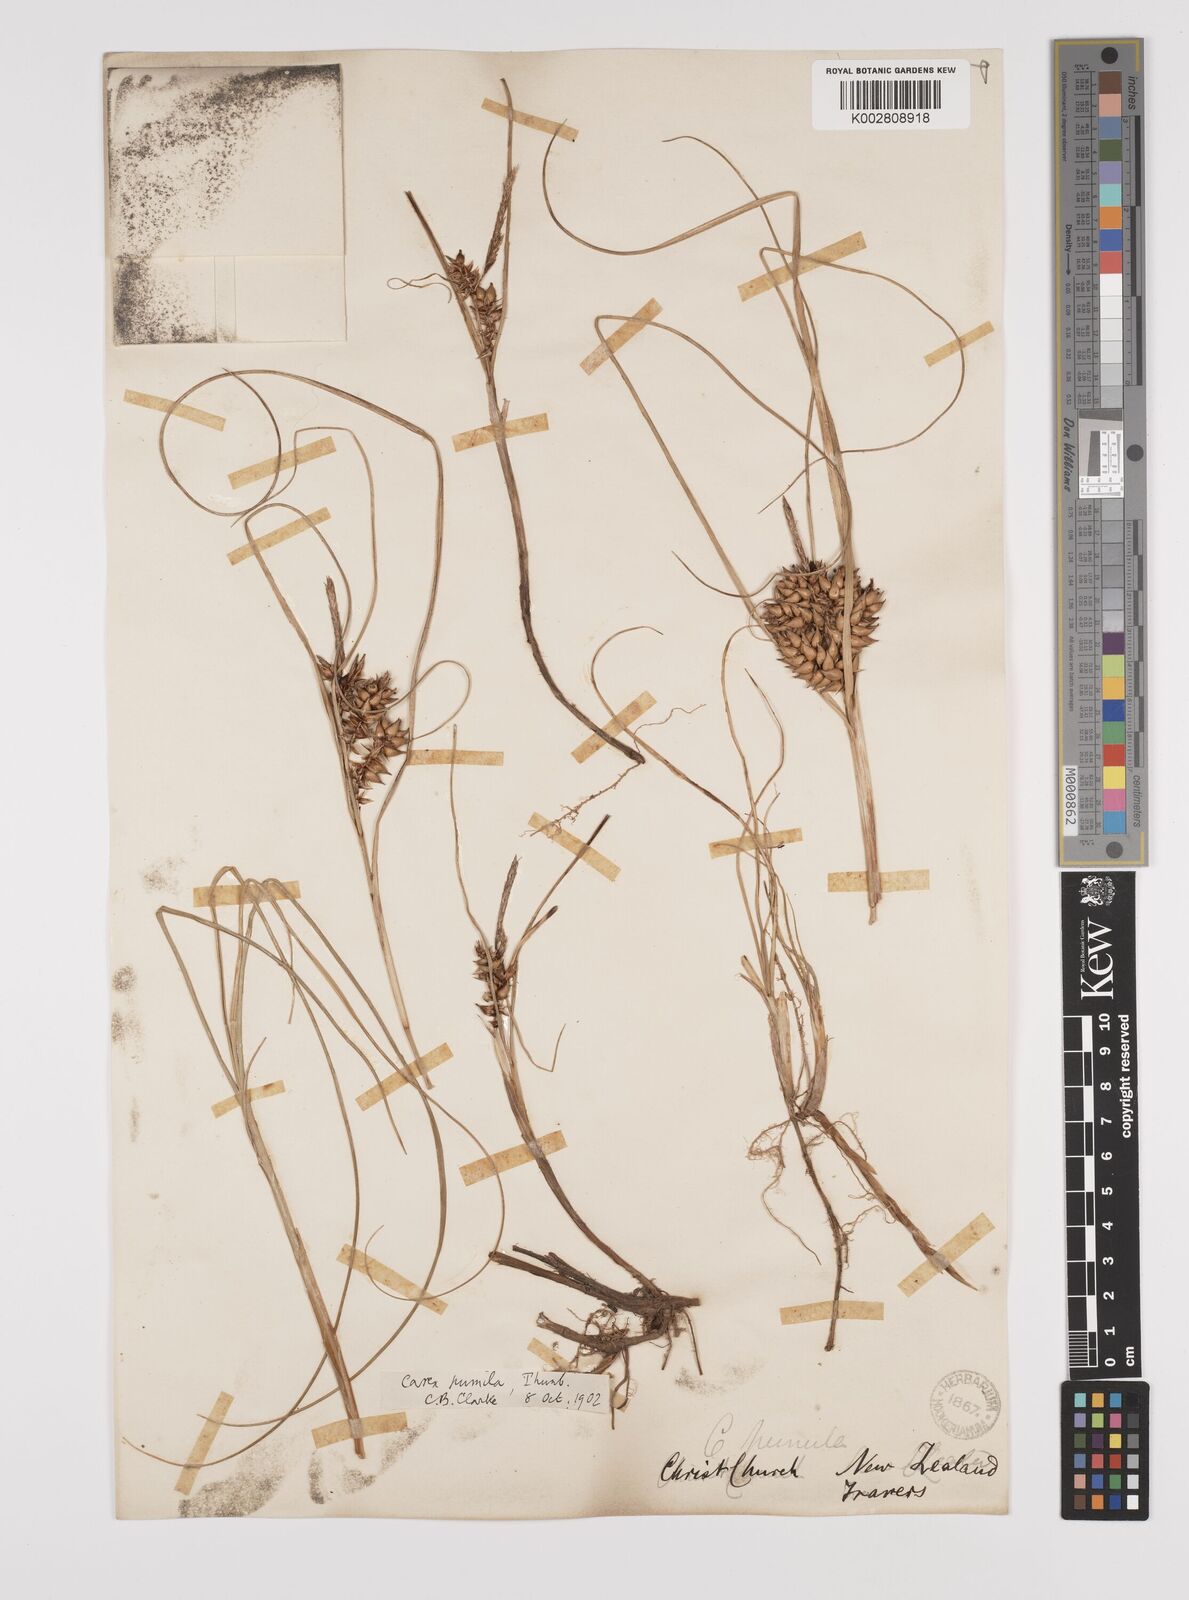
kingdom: Plantae
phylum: Tracheophyta
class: Liliopsida
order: Poales
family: Cyperaceae
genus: Carex
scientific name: Carex pumila
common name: Dwarf sedge
